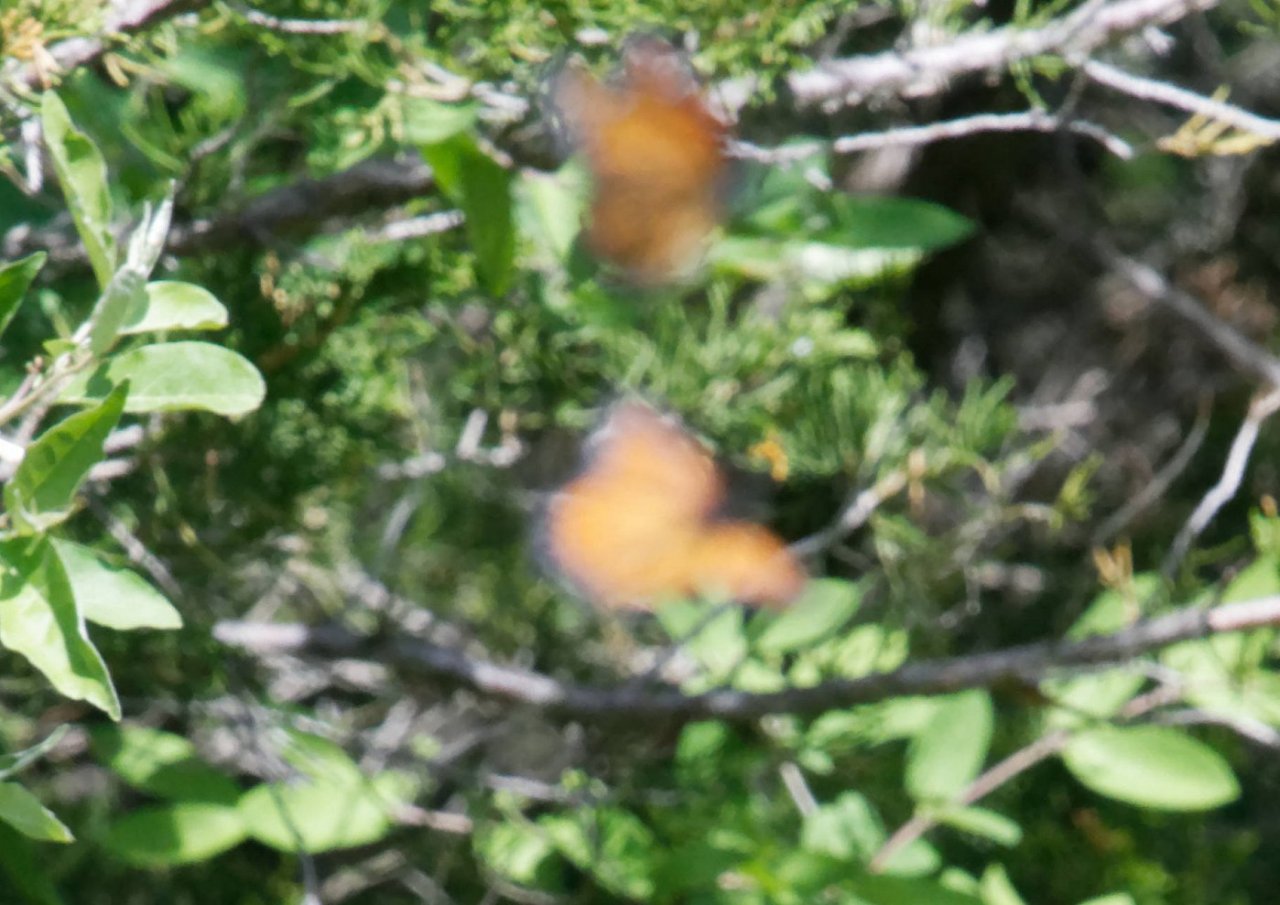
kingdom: Animalia
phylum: Arthropoda
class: Insecta
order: Lepidoptera
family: Nymphalidae
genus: Limenitis
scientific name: Limenitis archippus
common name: Viceroy
